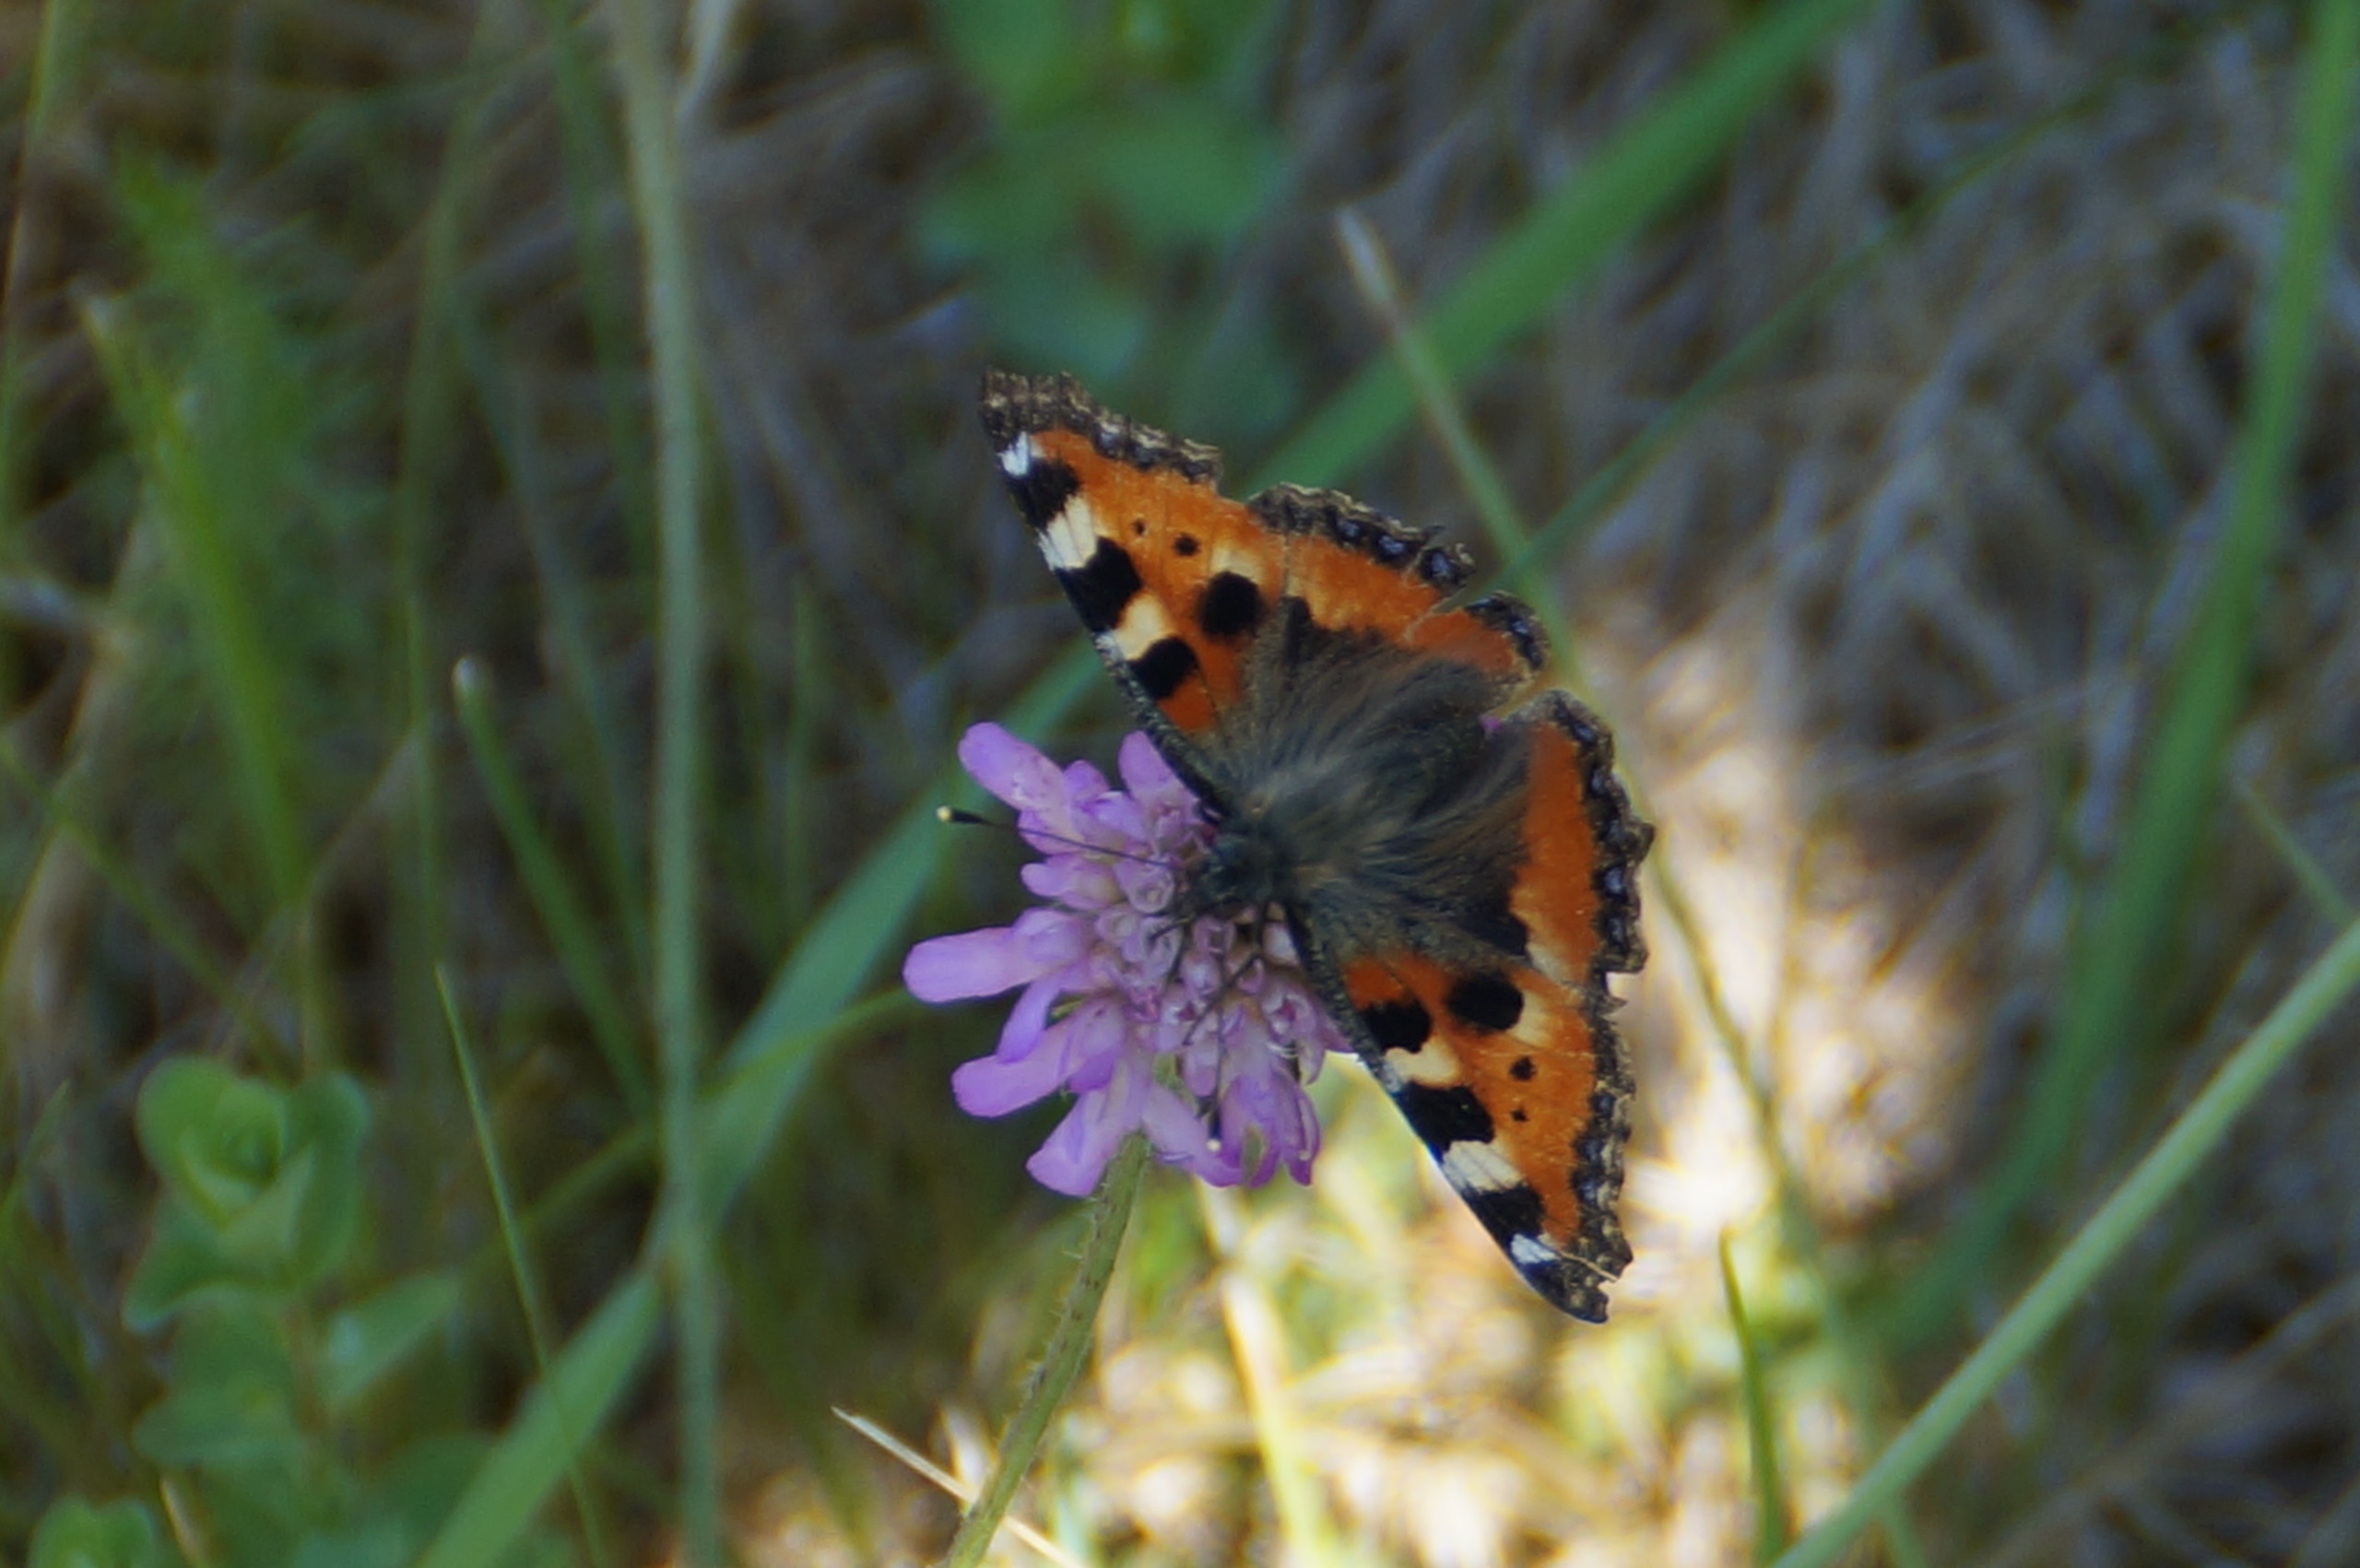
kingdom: Animalia
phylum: Arthropoda
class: Insecta
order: Lepidoptera
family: Nymphalidae
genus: Aglais
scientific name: Aglais urticae
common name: Nældens takvinge
